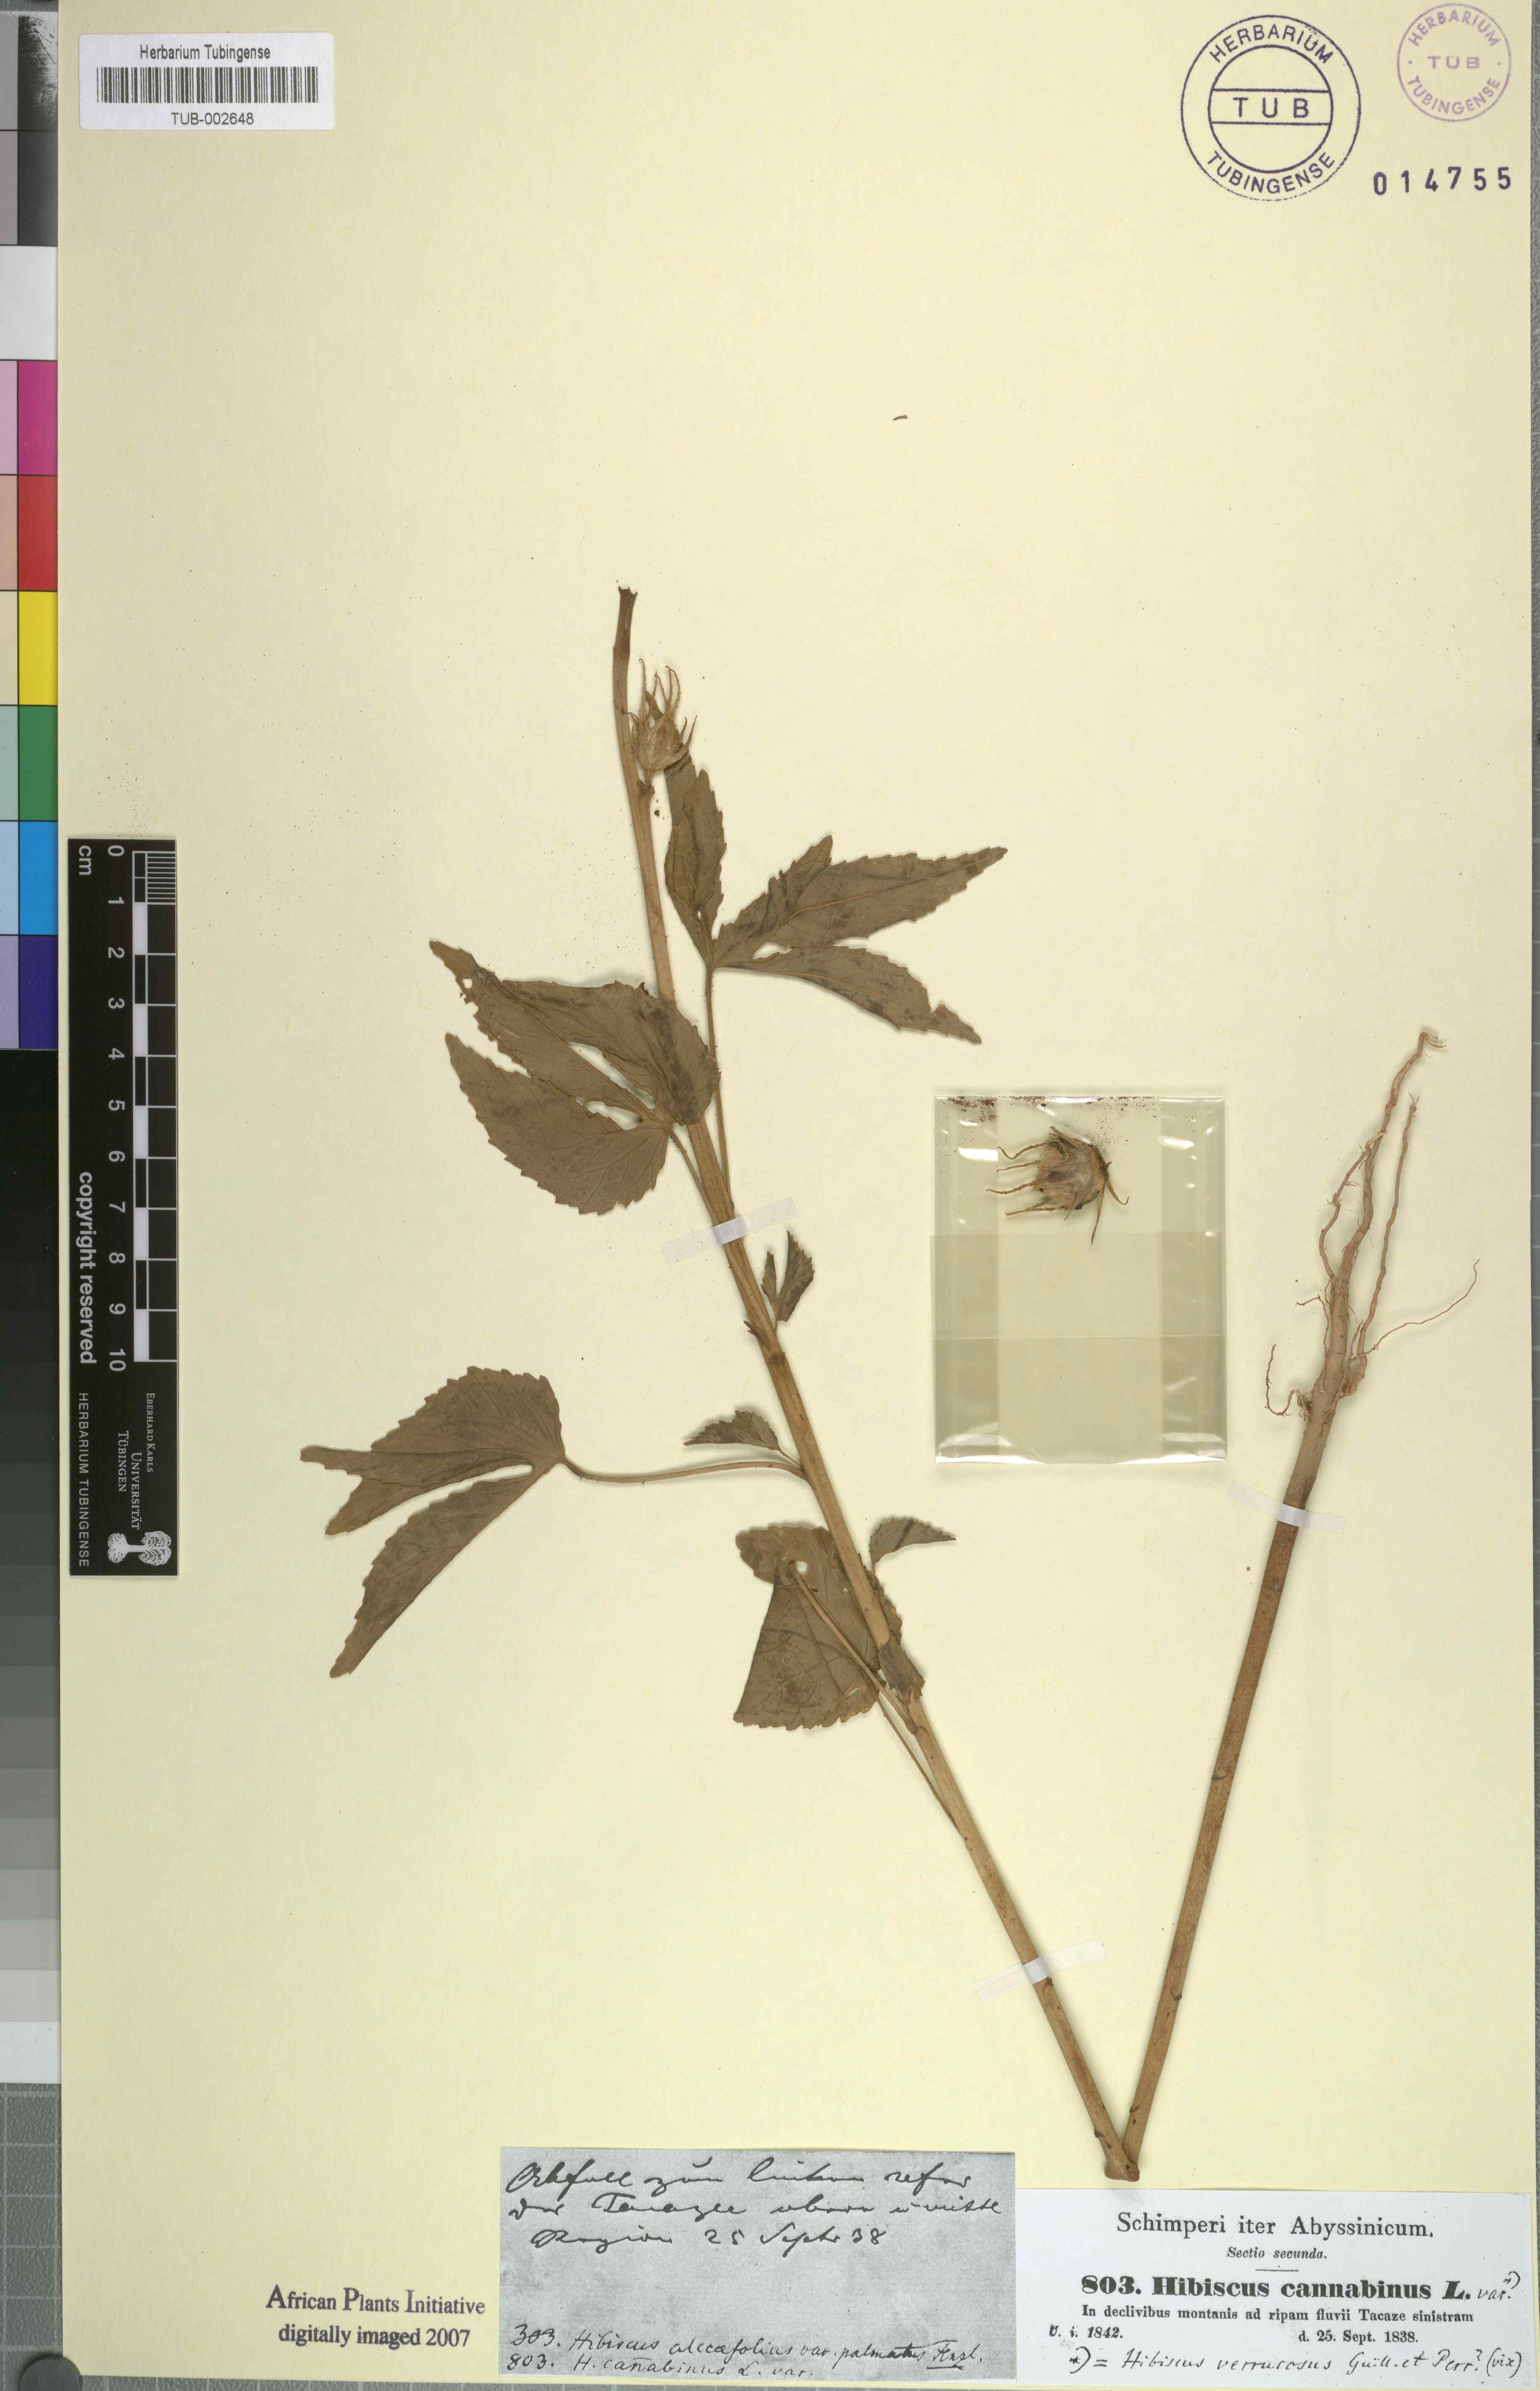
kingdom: Plantae
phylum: Tracheophyta
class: Magnoliopsida
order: Malvales
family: Malvaceae
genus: Hibiscus
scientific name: Hibiscus cannabinus
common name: Brown indianhemp
